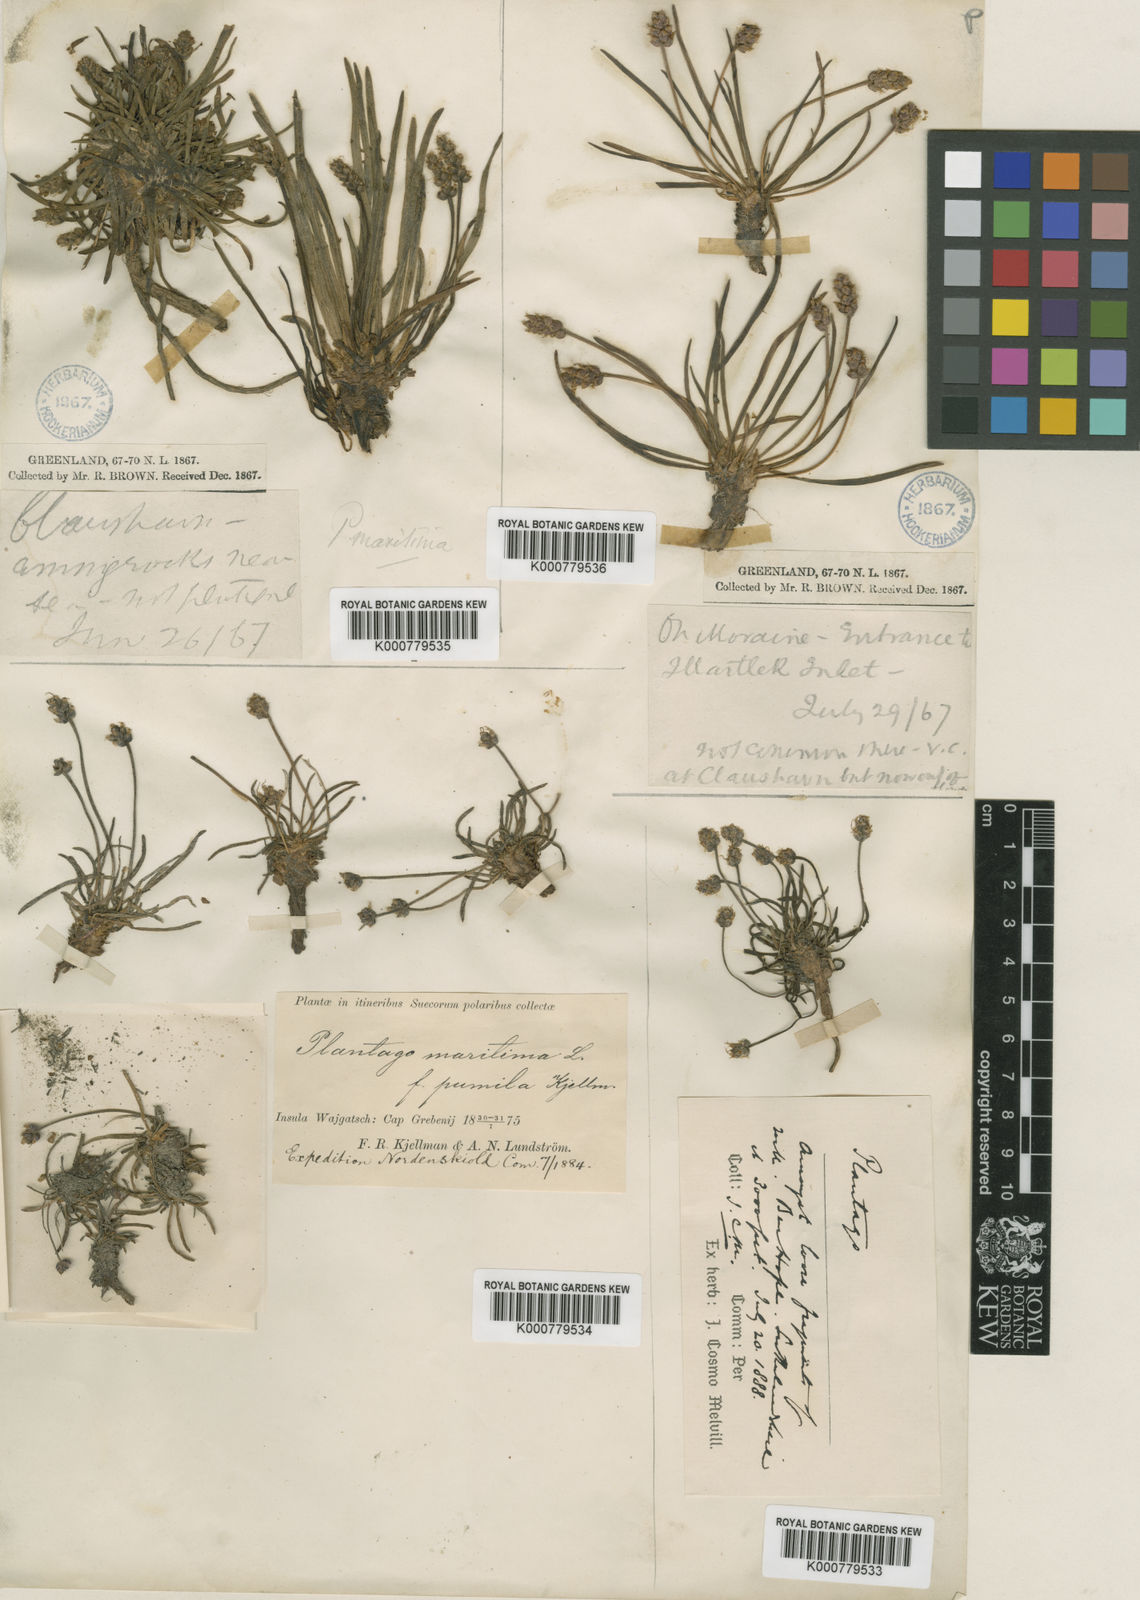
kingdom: Plantae
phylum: Tracheophyta
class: Magnoliopsida
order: Lamiales
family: Plantaginaceae
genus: Plantago
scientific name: Plantago maritima
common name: Sea plantain
